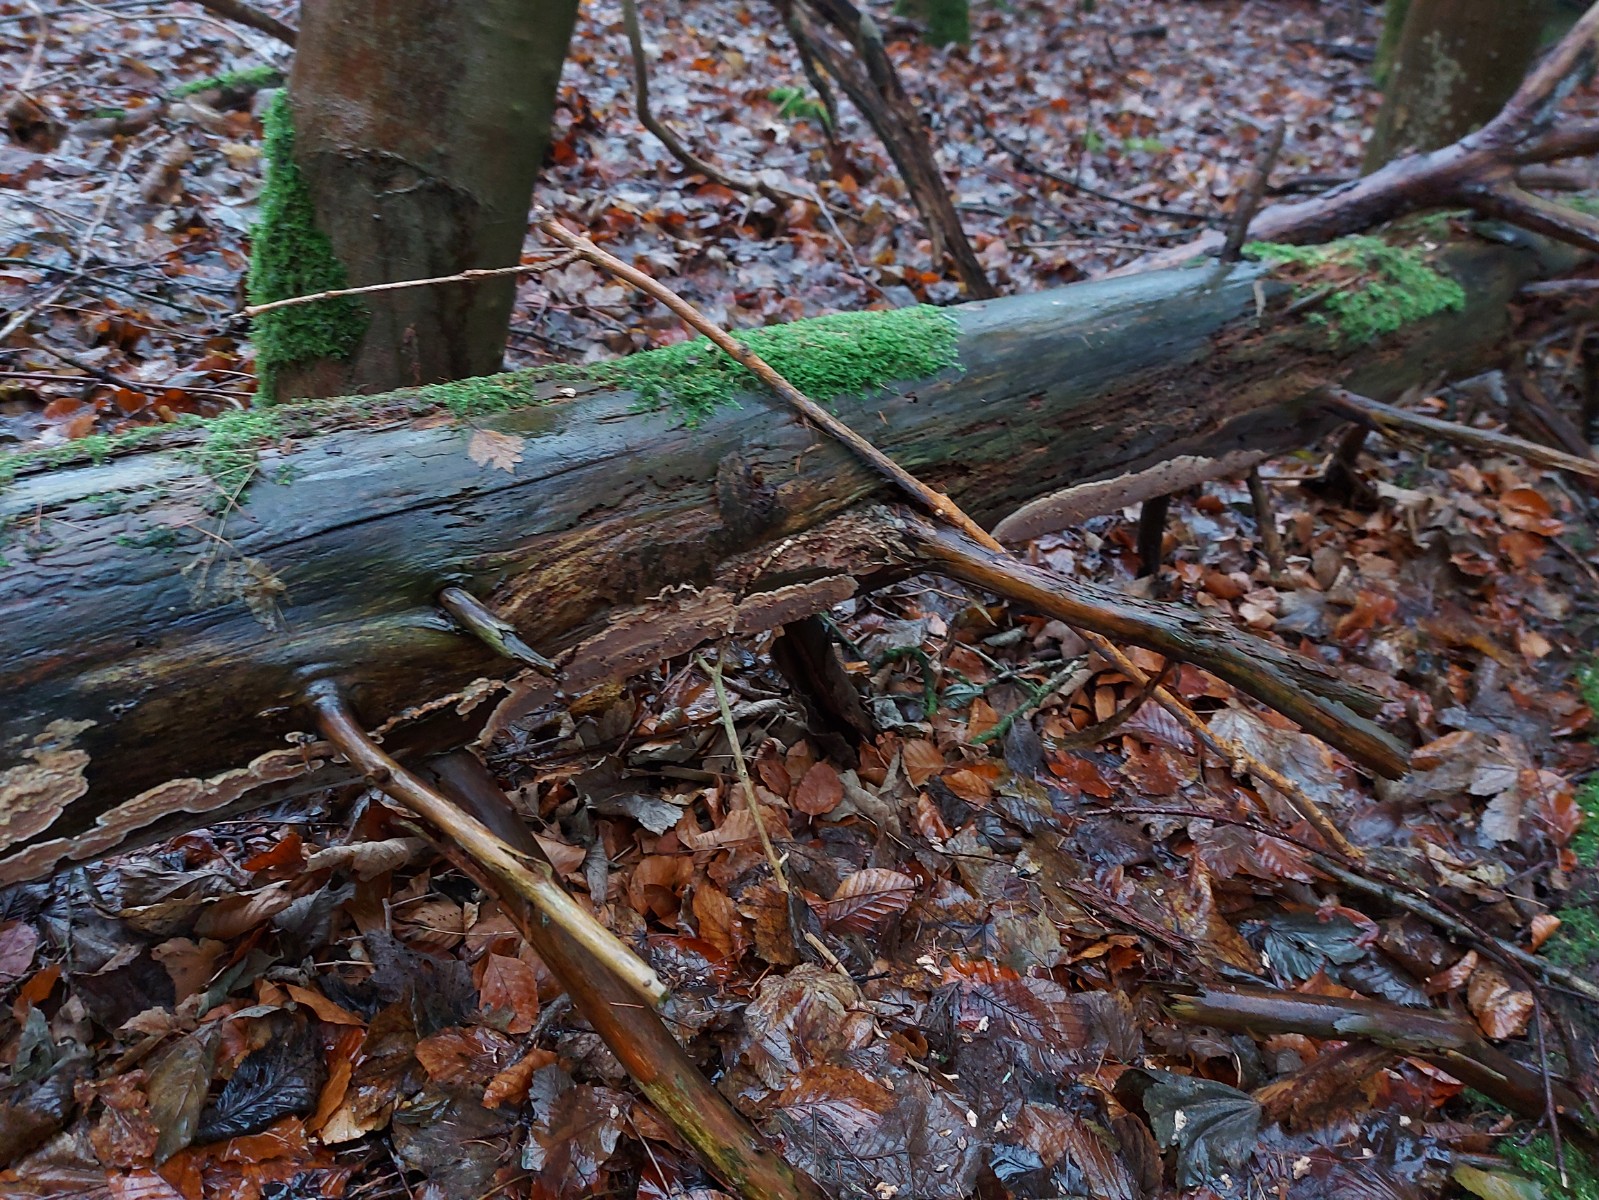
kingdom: Fungi
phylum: Basidiomycota
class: Agaricomycetes
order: Polyporales
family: Dacryobolaceae
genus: Dacryobolus
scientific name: Dacryobolus karstenii
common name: glat vulkanskorpe
